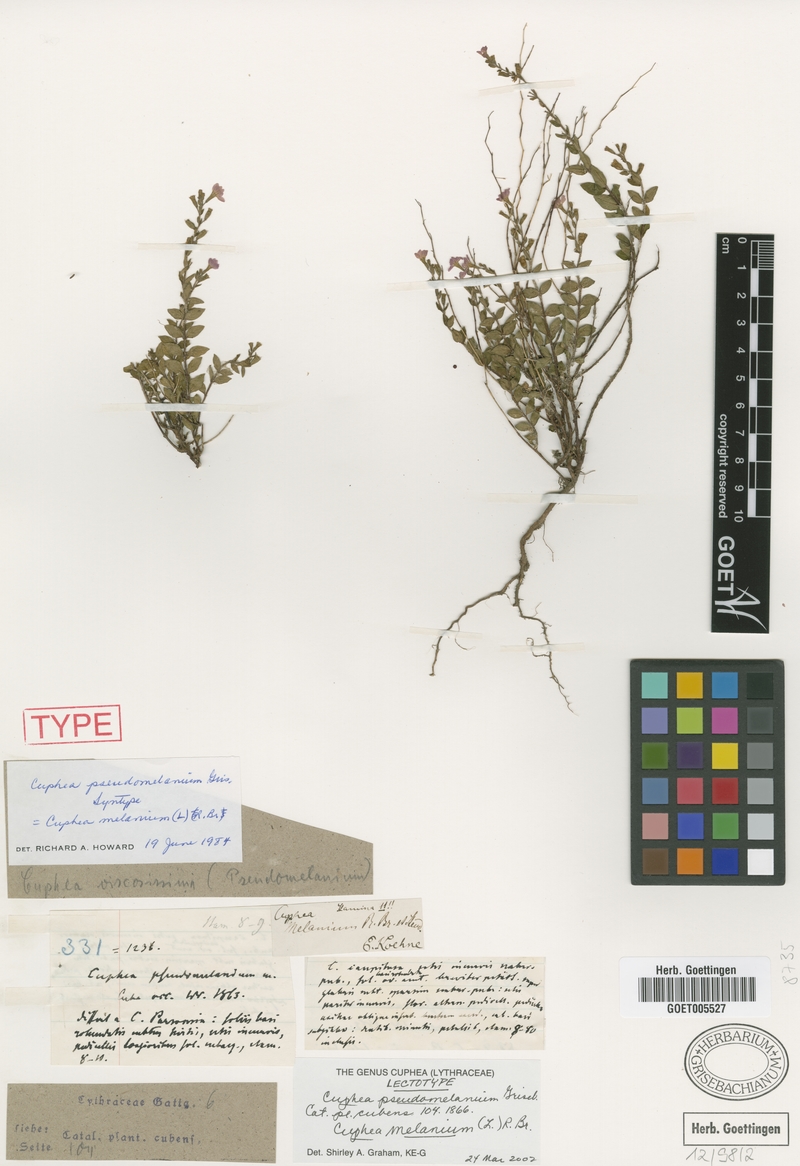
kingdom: Plantae
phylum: Tracheophyta
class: Magnoliopsida
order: Myrtales
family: Lythraceae
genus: Cuphea
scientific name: Cuphea melanium
